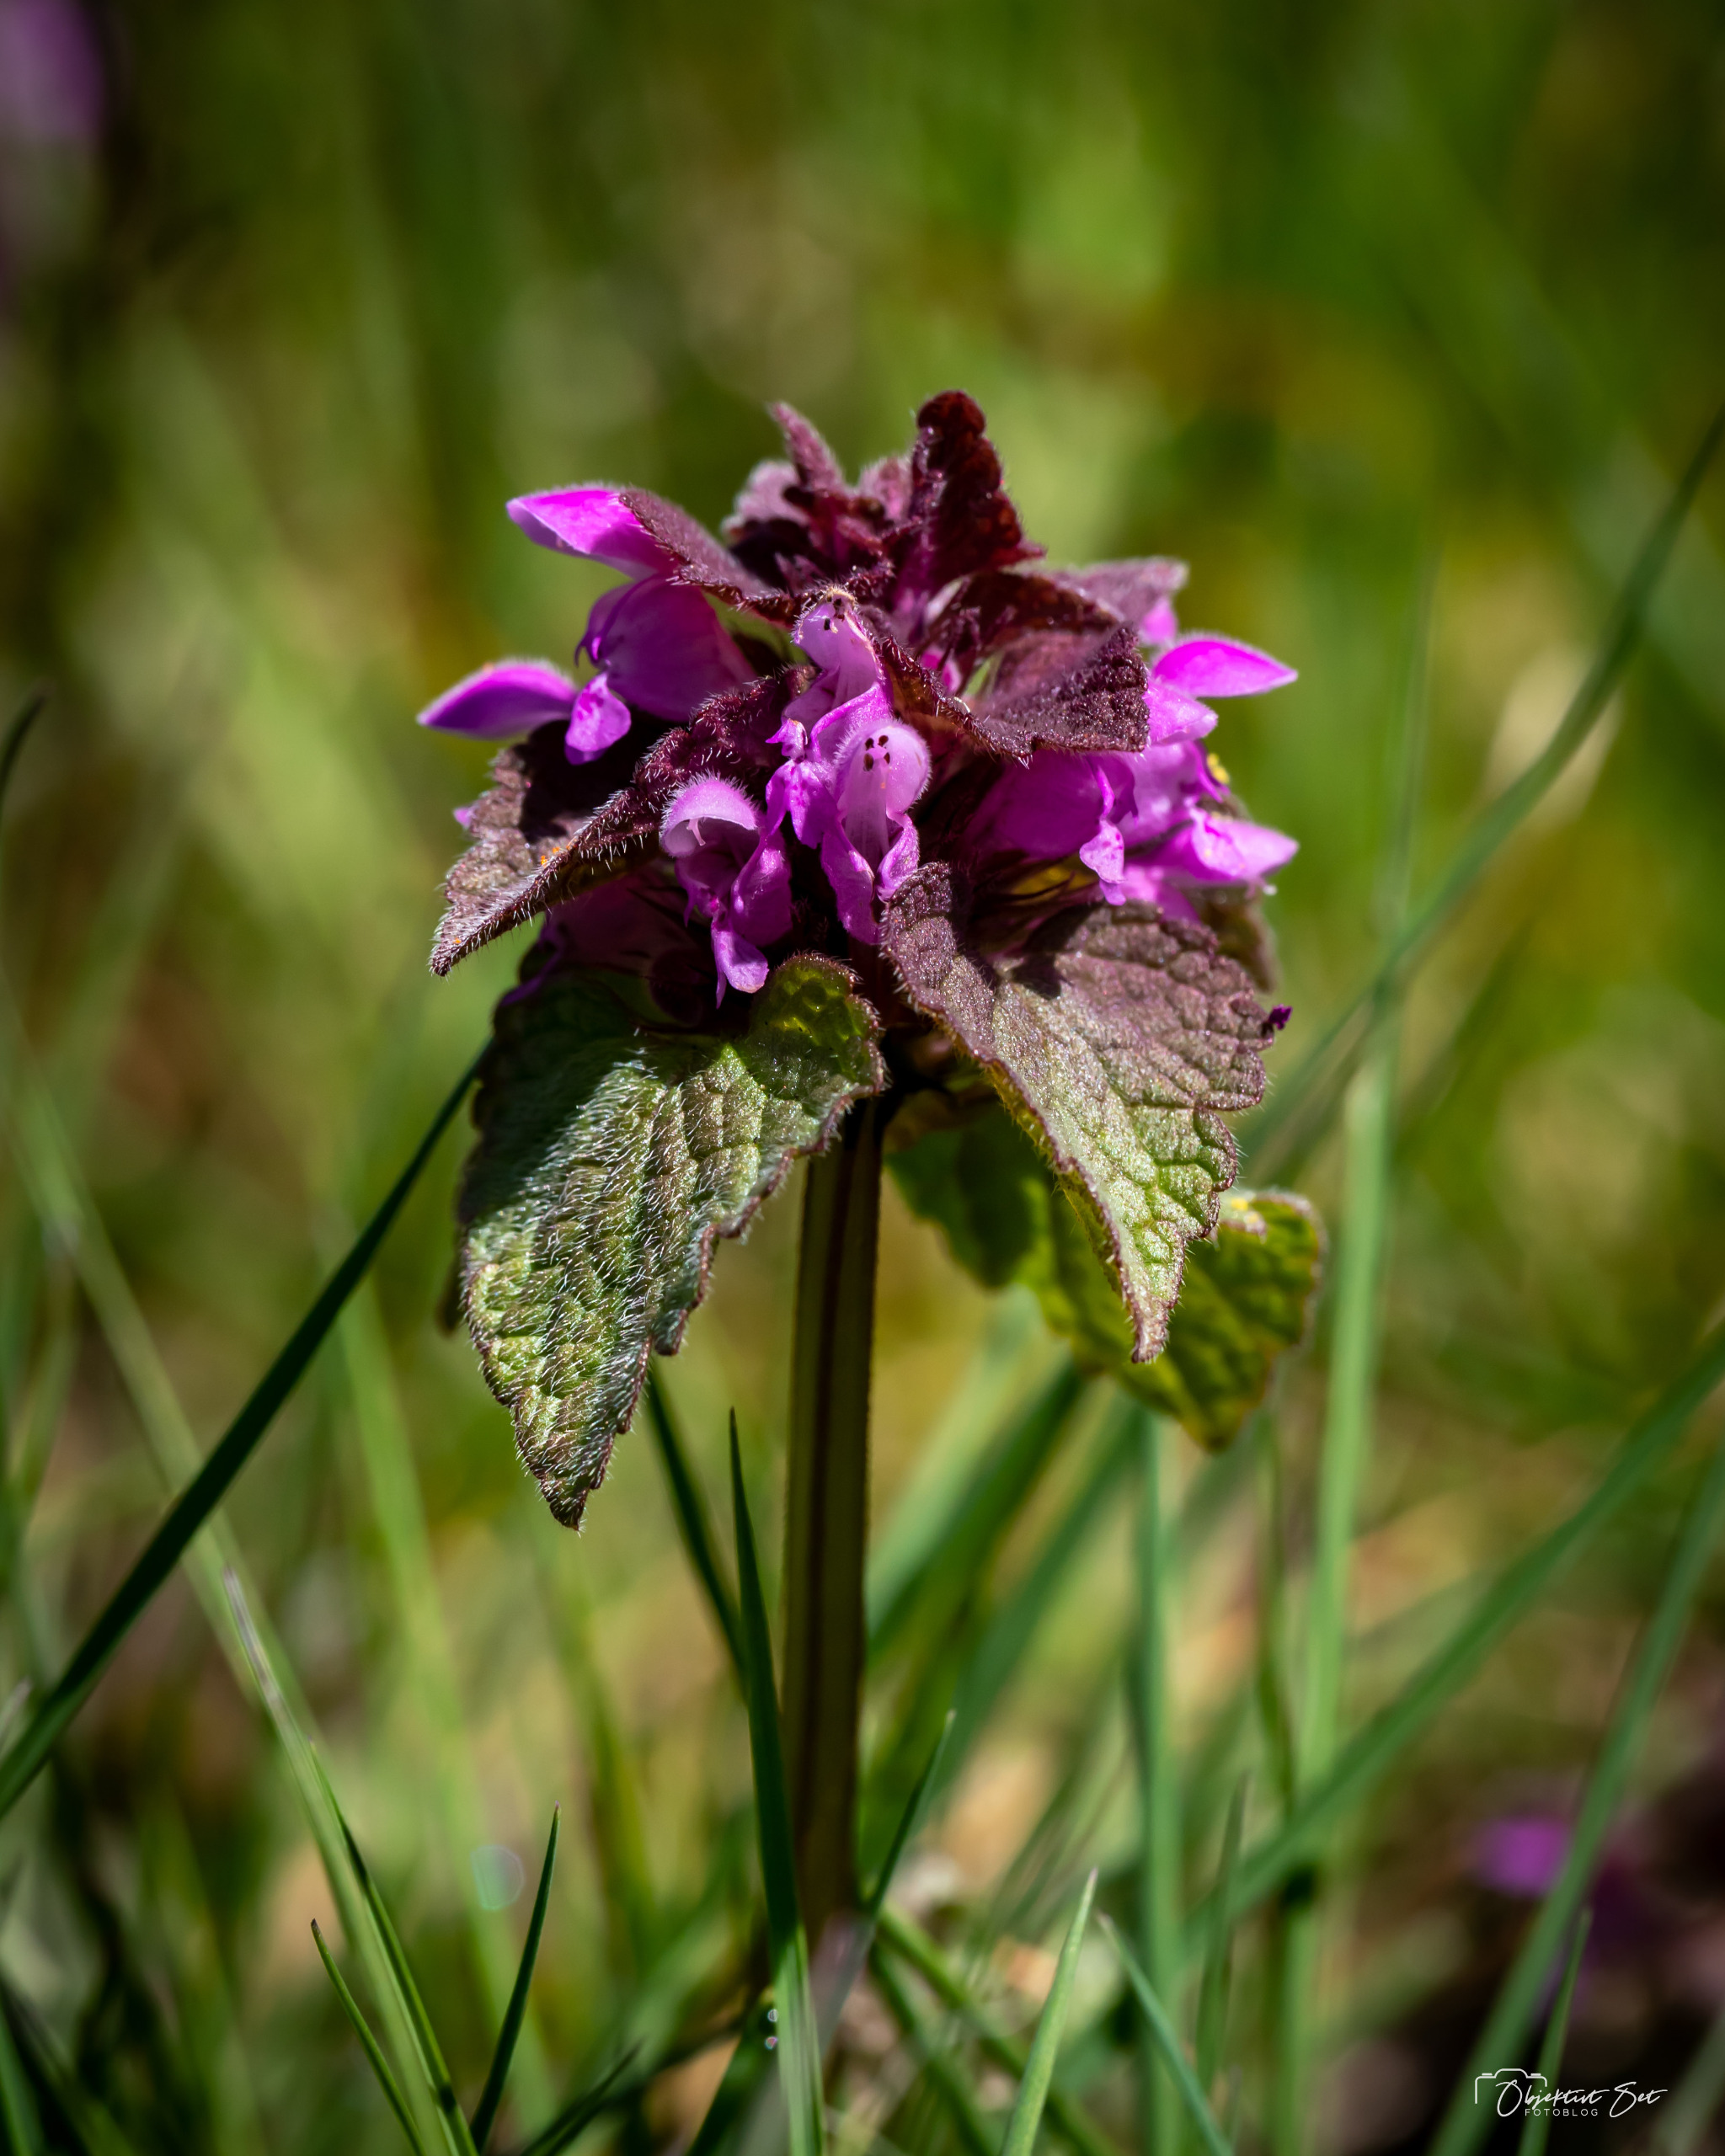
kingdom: Plantae
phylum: Tracheophyta
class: Magnoliopsida
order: Lamiales
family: Lamiaceae
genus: Lamium
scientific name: Lamium purpureum
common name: Rød tvetand
